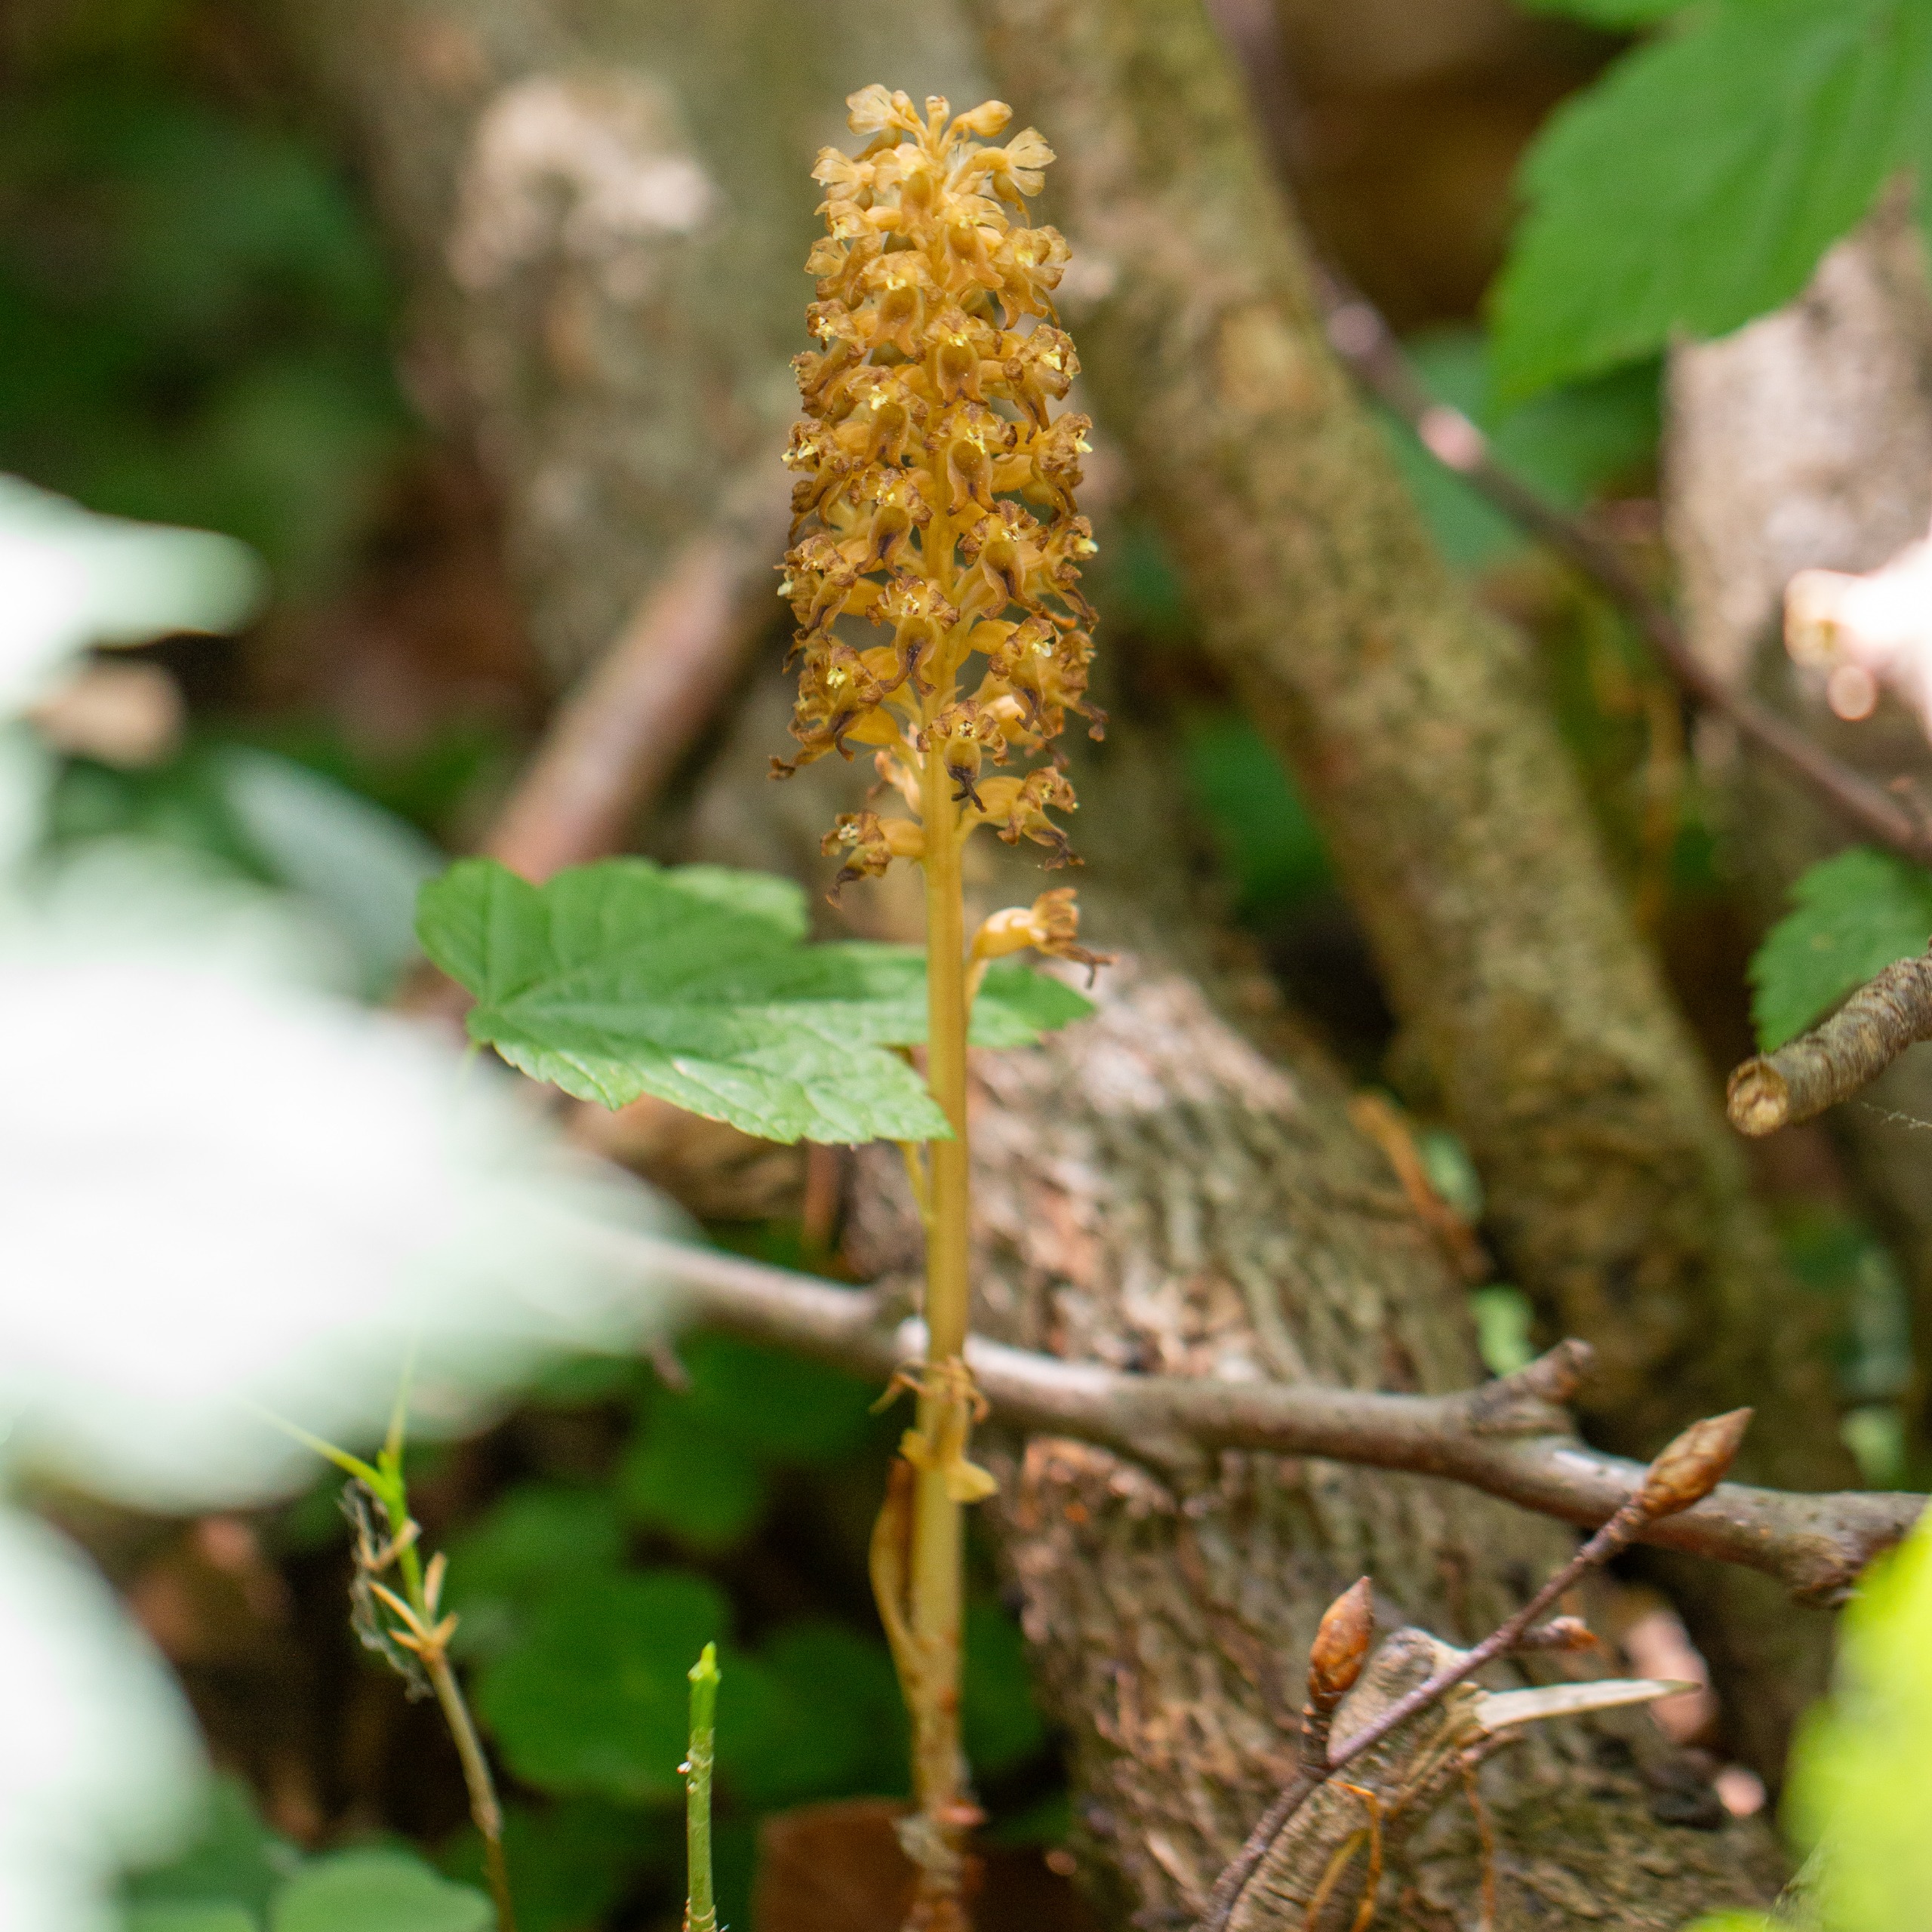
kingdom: Plantae
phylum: Tracheophyta
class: Liliopsida
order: Asparagales
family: Orchidaceae
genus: Neottia
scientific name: Neottia nidus-avis
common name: Rederod
